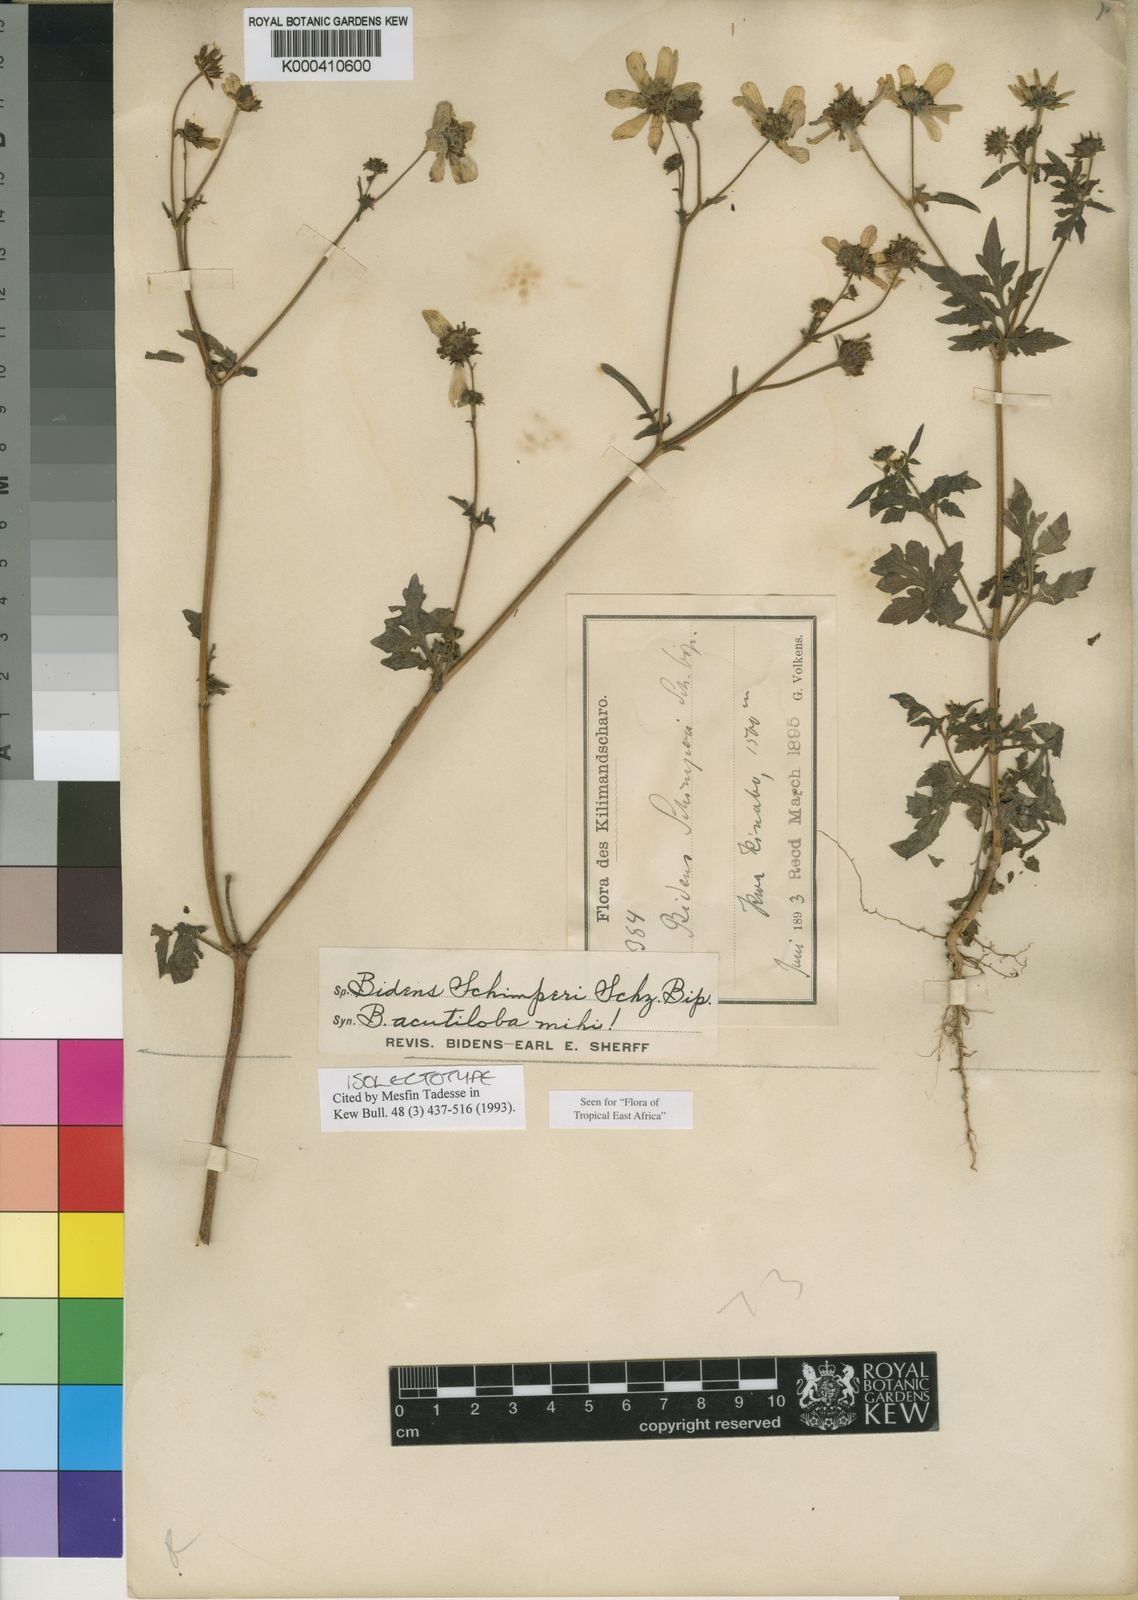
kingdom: Plantae
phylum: Tracheophyta
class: Magnoliopsida
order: Asterales
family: Asteraceae
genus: Bidens
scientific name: Bidens schimperi
